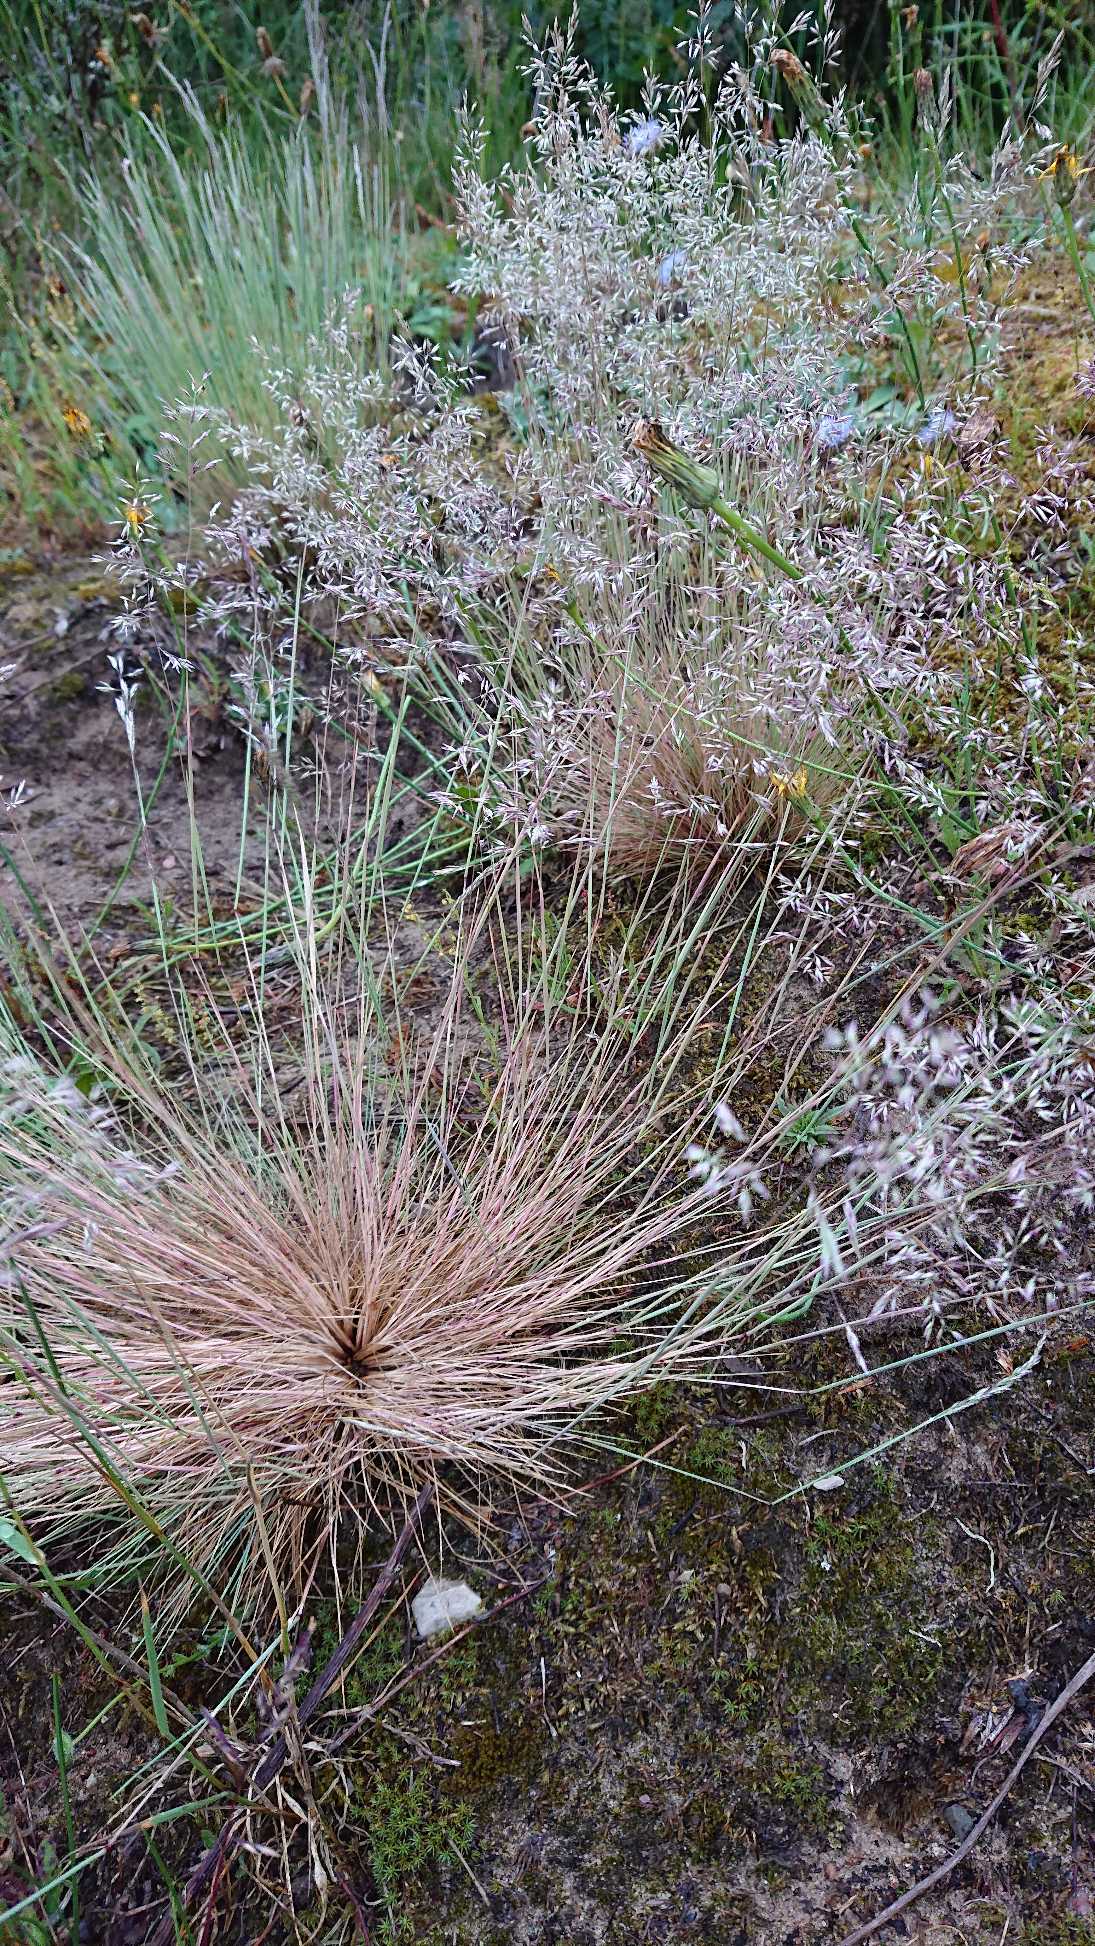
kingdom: Plantae
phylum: Tracheophyta
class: Liliopsida
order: Poales
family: Poaceae
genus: Corynephorus
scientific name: Corynephorus canescens
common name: Sandskæg
